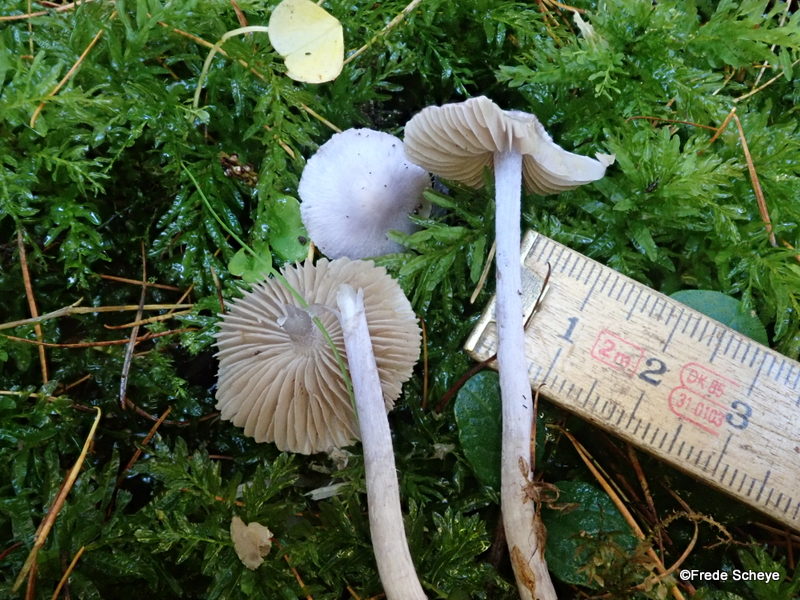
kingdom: Fungi
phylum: Basidiomycota
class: Agaricomycetes
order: Agaricales
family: Inocybaceae
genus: Inocybe
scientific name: Inocybe geophylla
